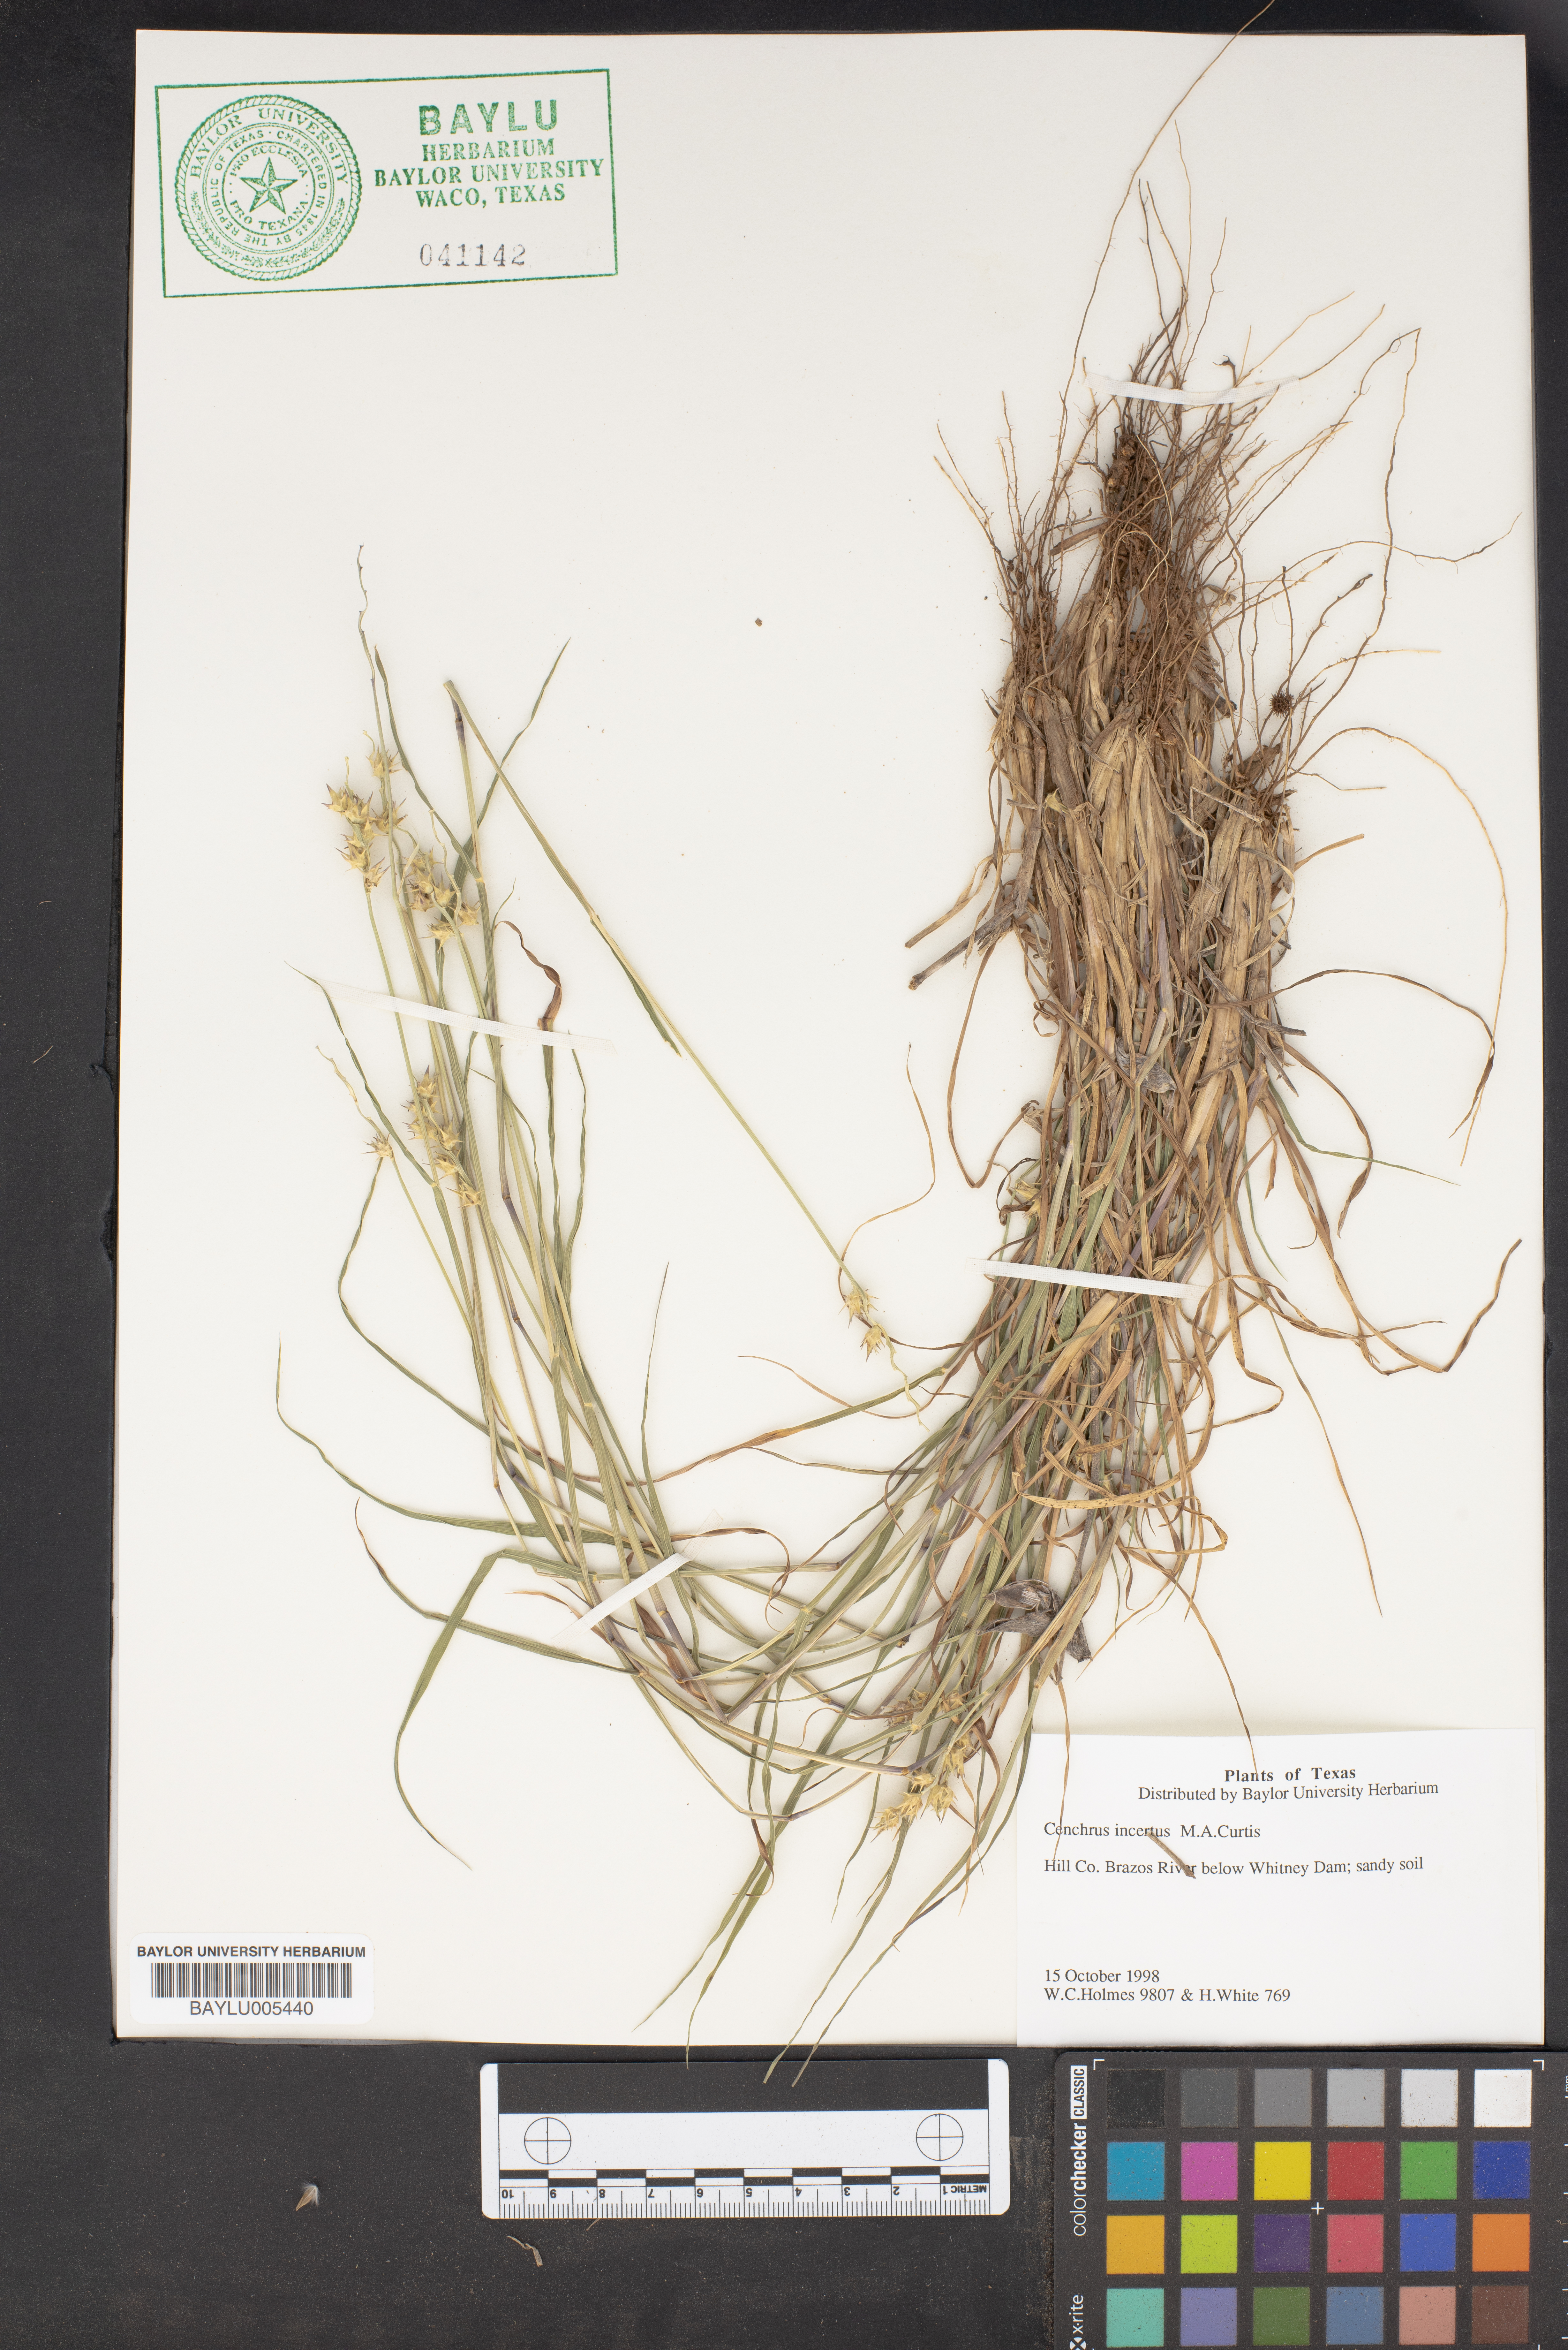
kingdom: Plantae
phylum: Tracheophyta
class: Liliopsida
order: Poales
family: Poaceae
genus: Cenchrus
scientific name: Cenchrus spinifex
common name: Coast sandbur
